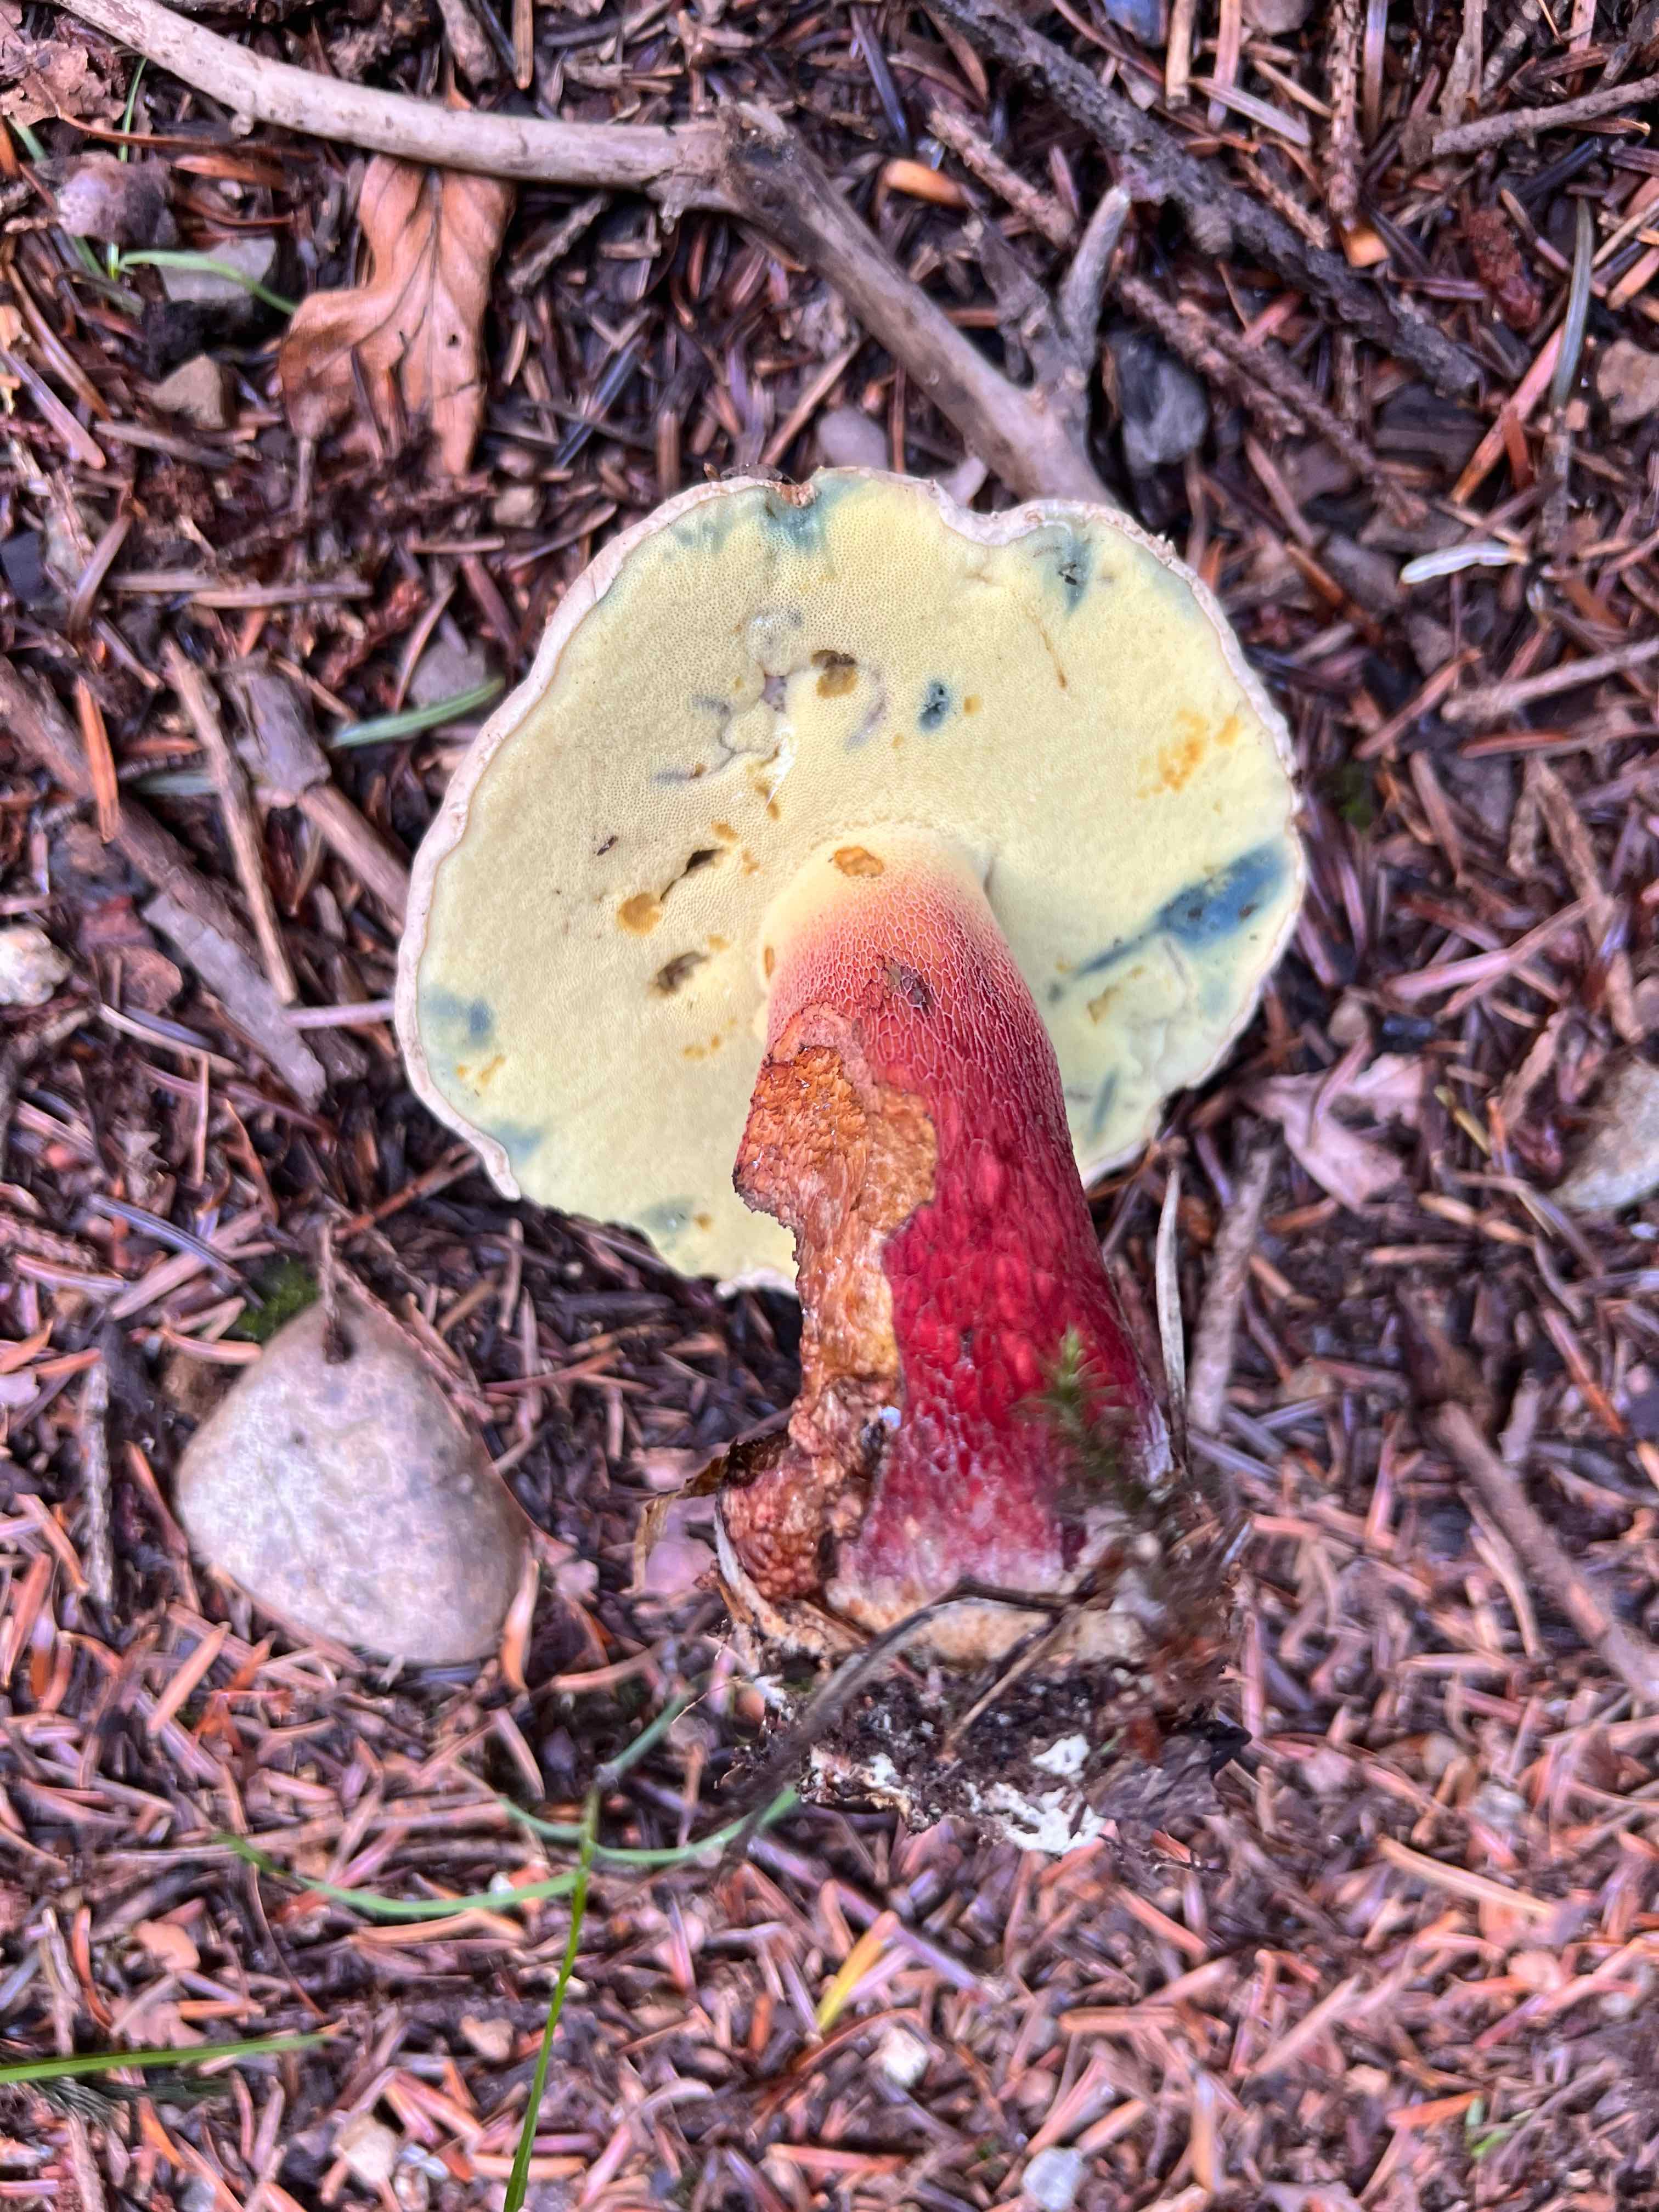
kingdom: Fungi
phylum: Basidiomycota
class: Agaricomycetes
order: Boletales
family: Boletaceae
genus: Caloboletus
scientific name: Caloboletus calopus
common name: skønfodet rørhat
